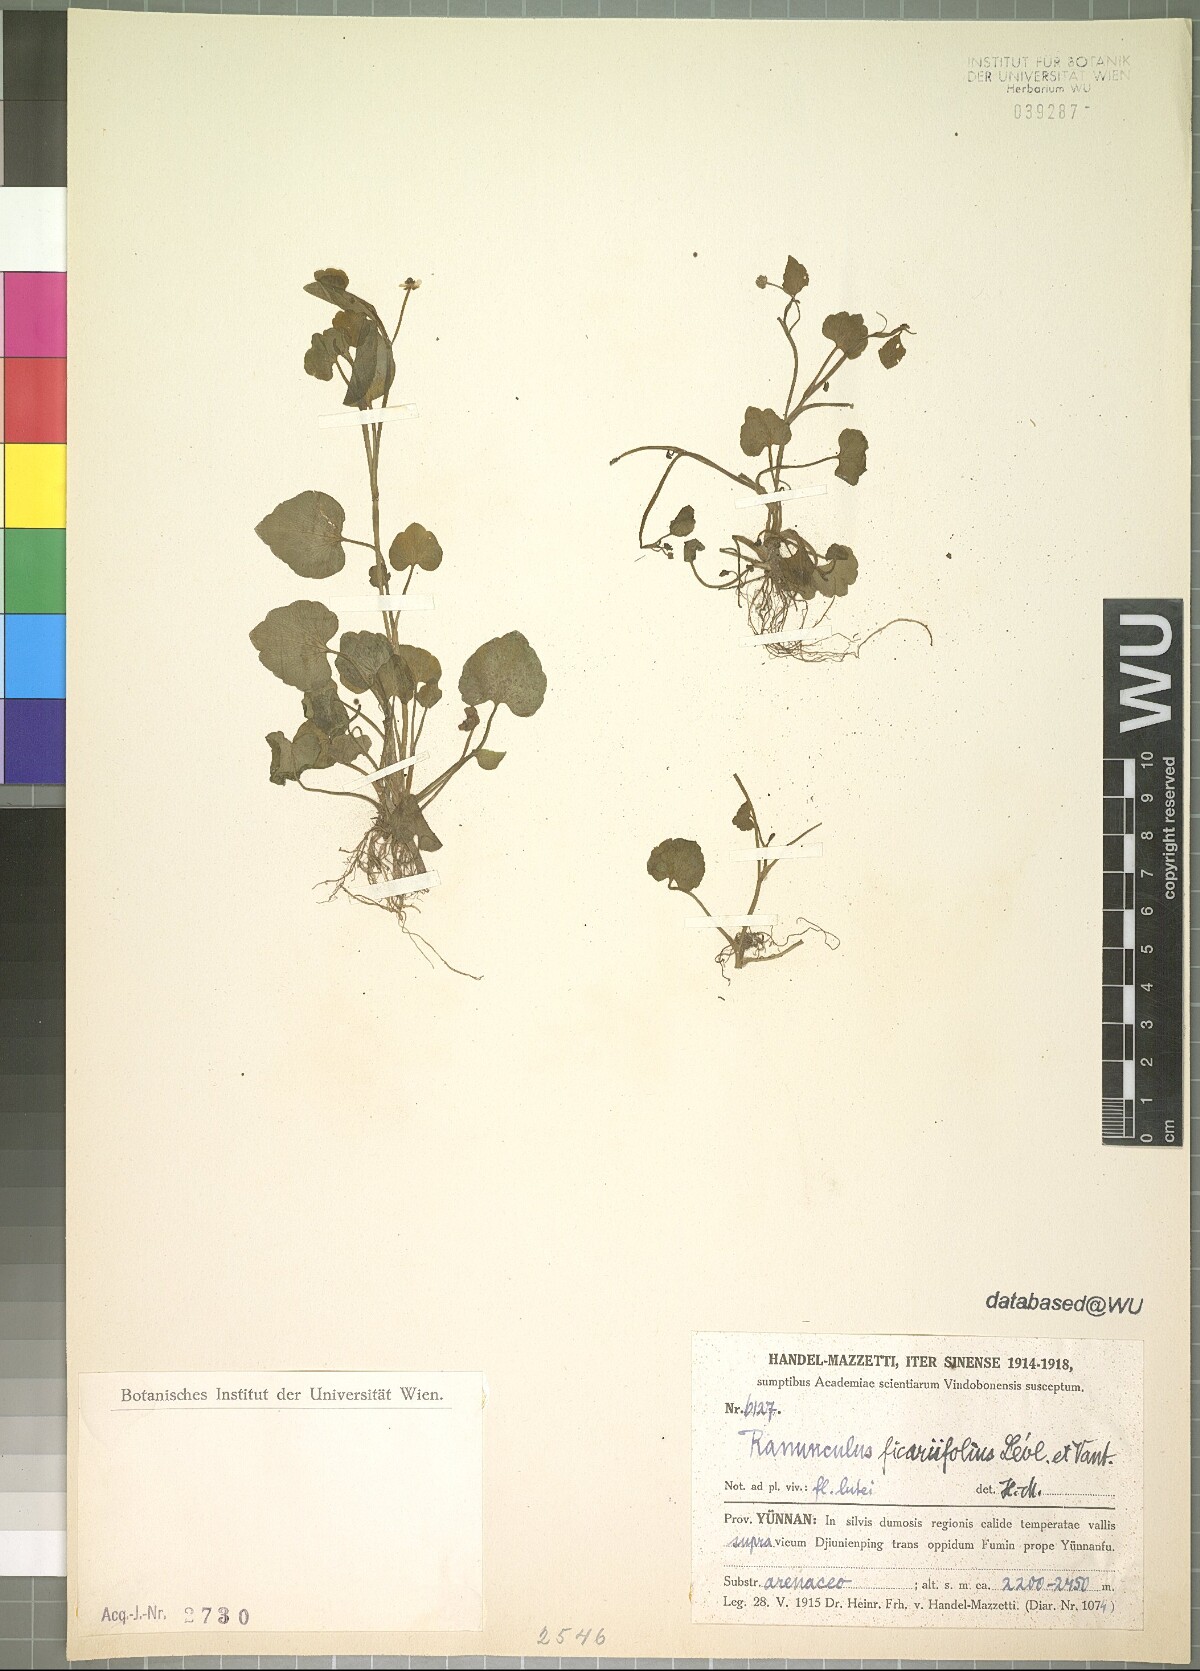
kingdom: Plantae
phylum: Tracheophyta
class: Magnoliopsida
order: Ranunculales
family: Ranunculaceae
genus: Ranunculus
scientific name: Ranunculus microphyllus
